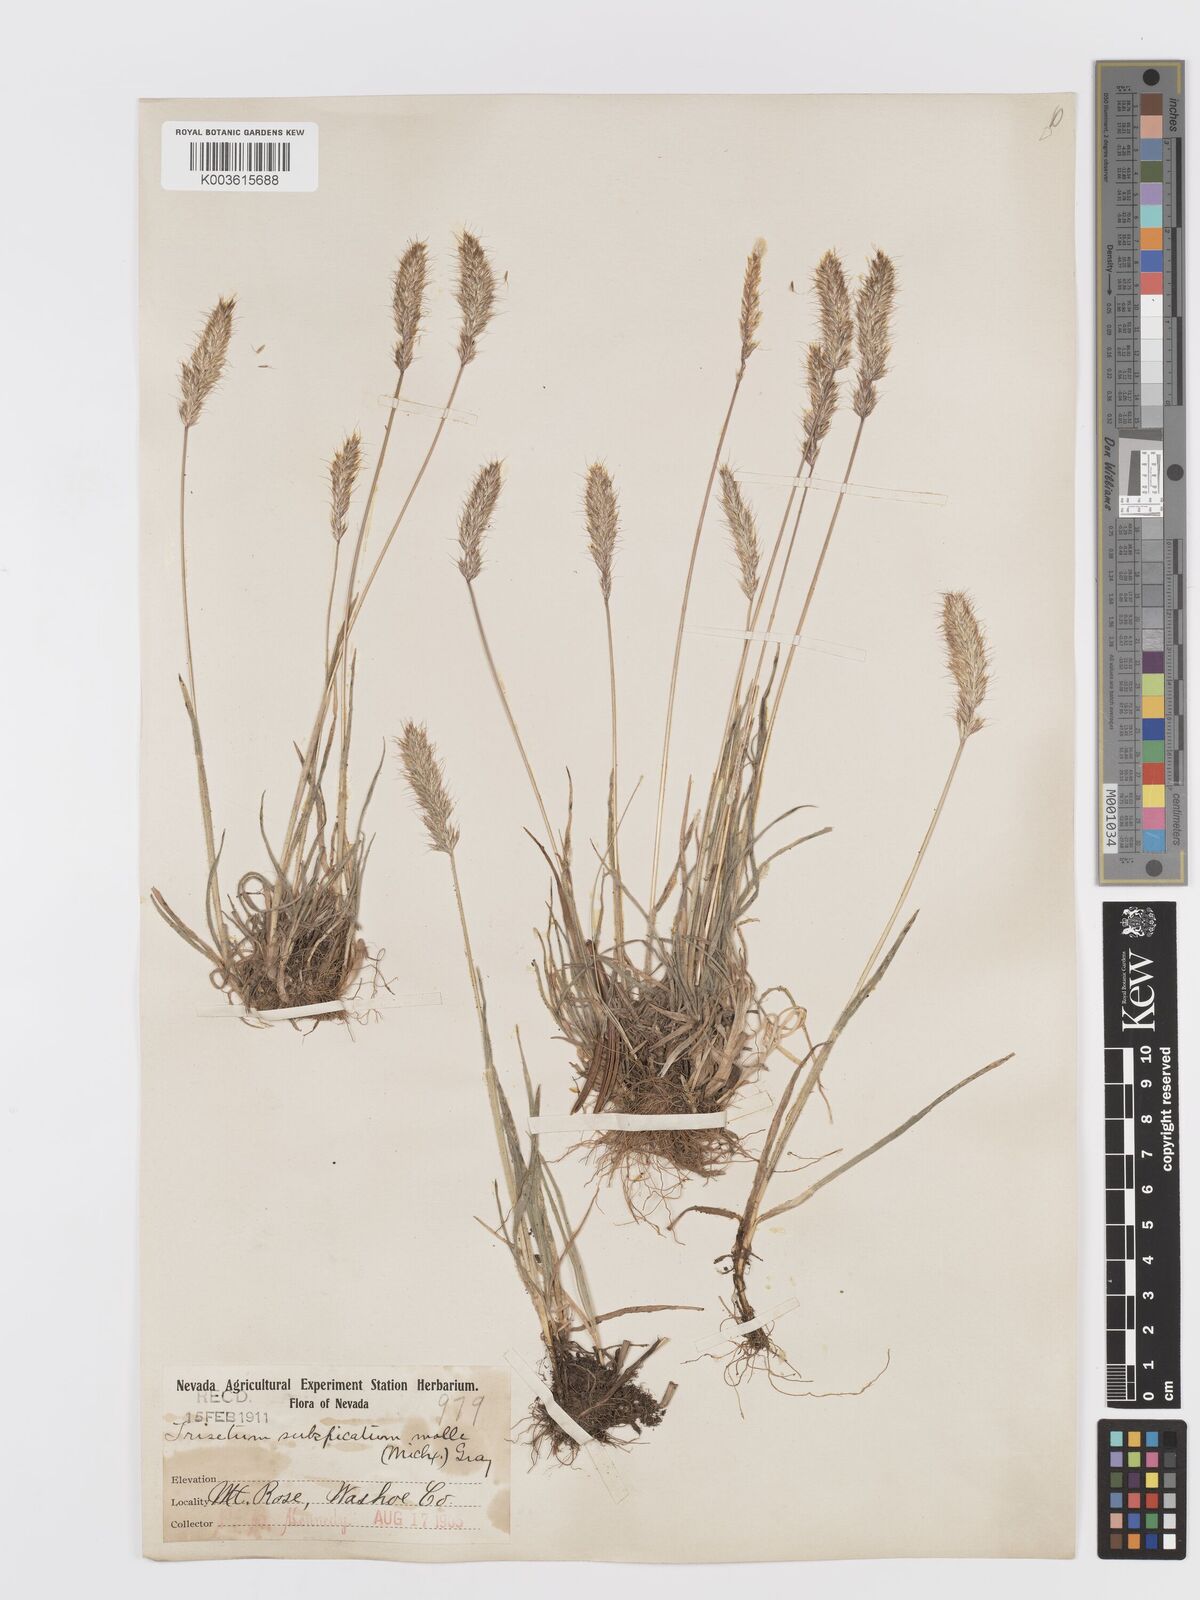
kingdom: Plantae
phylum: Tracheophyta
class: Liliopsida
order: Poales
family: Poaceae
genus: Koeleria
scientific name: Koeleria spicata
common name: Mountain trisetum
